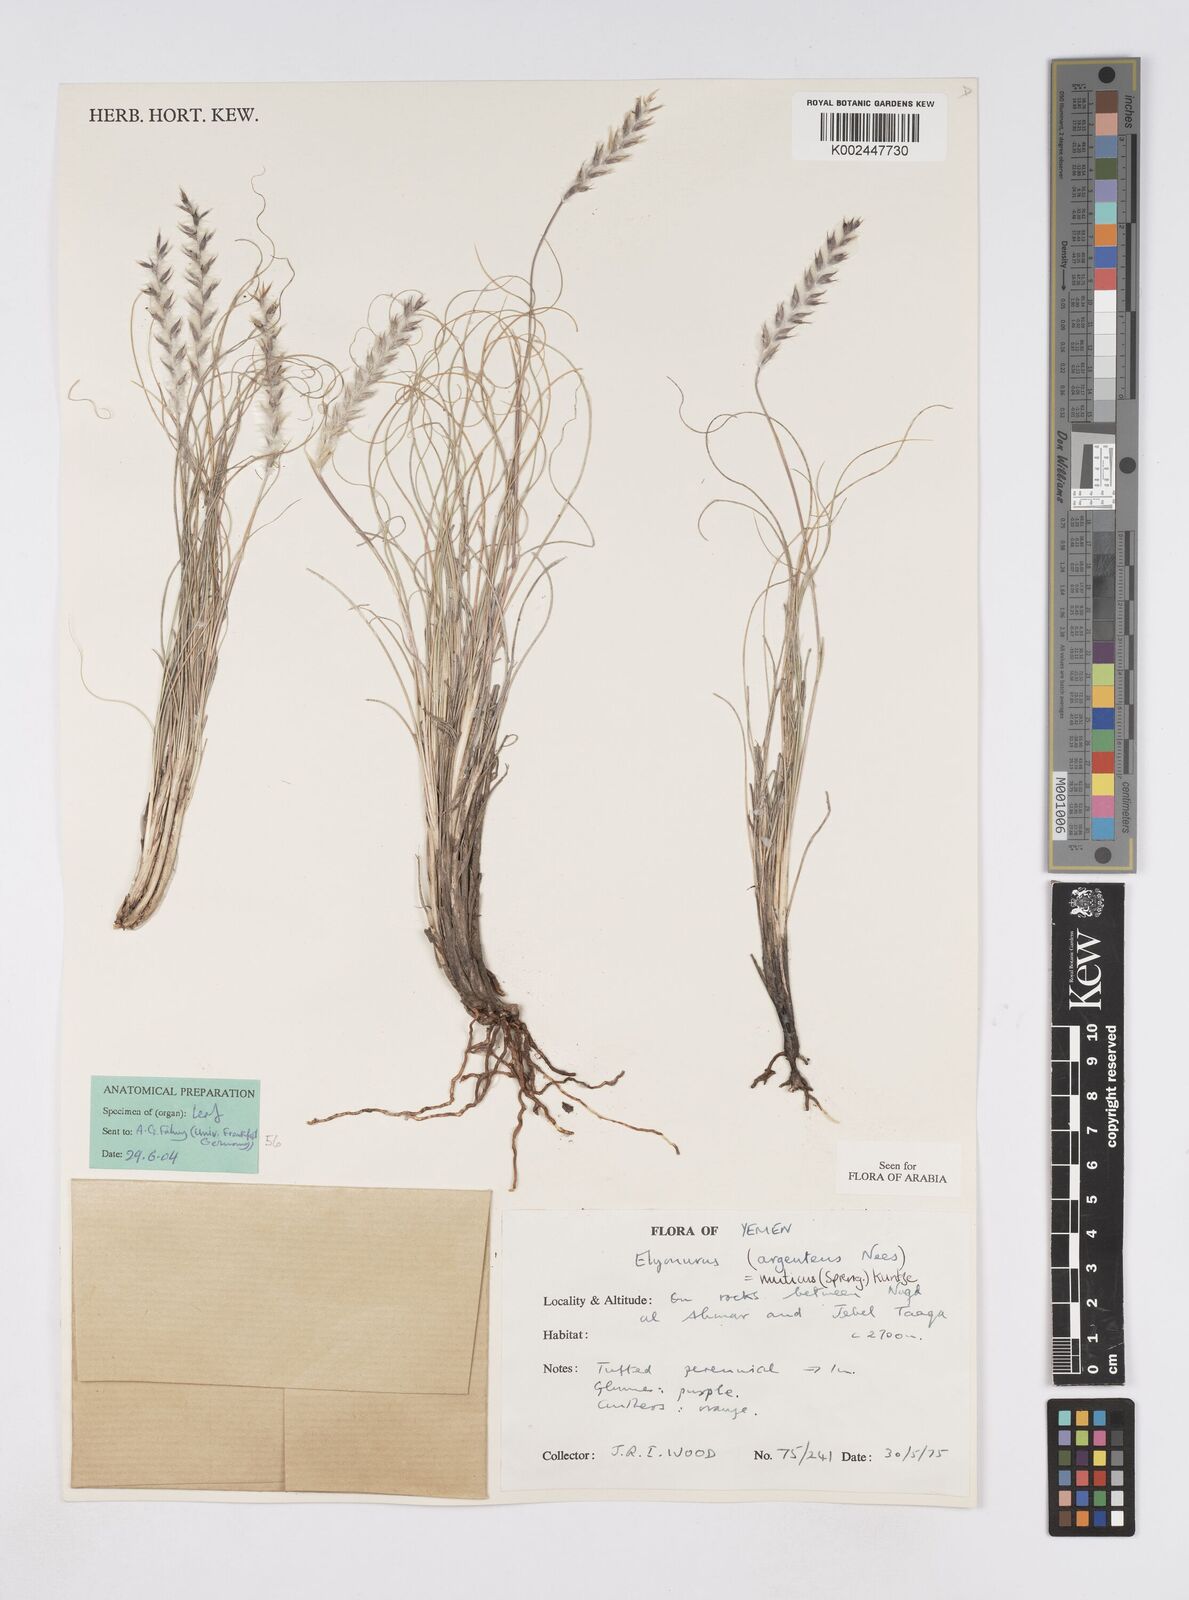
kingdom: Plantae
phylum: Tracheophyta
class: Liliopsida
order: Poales
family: Poaceae
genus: Elionurus
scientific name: Elionurus muticus
